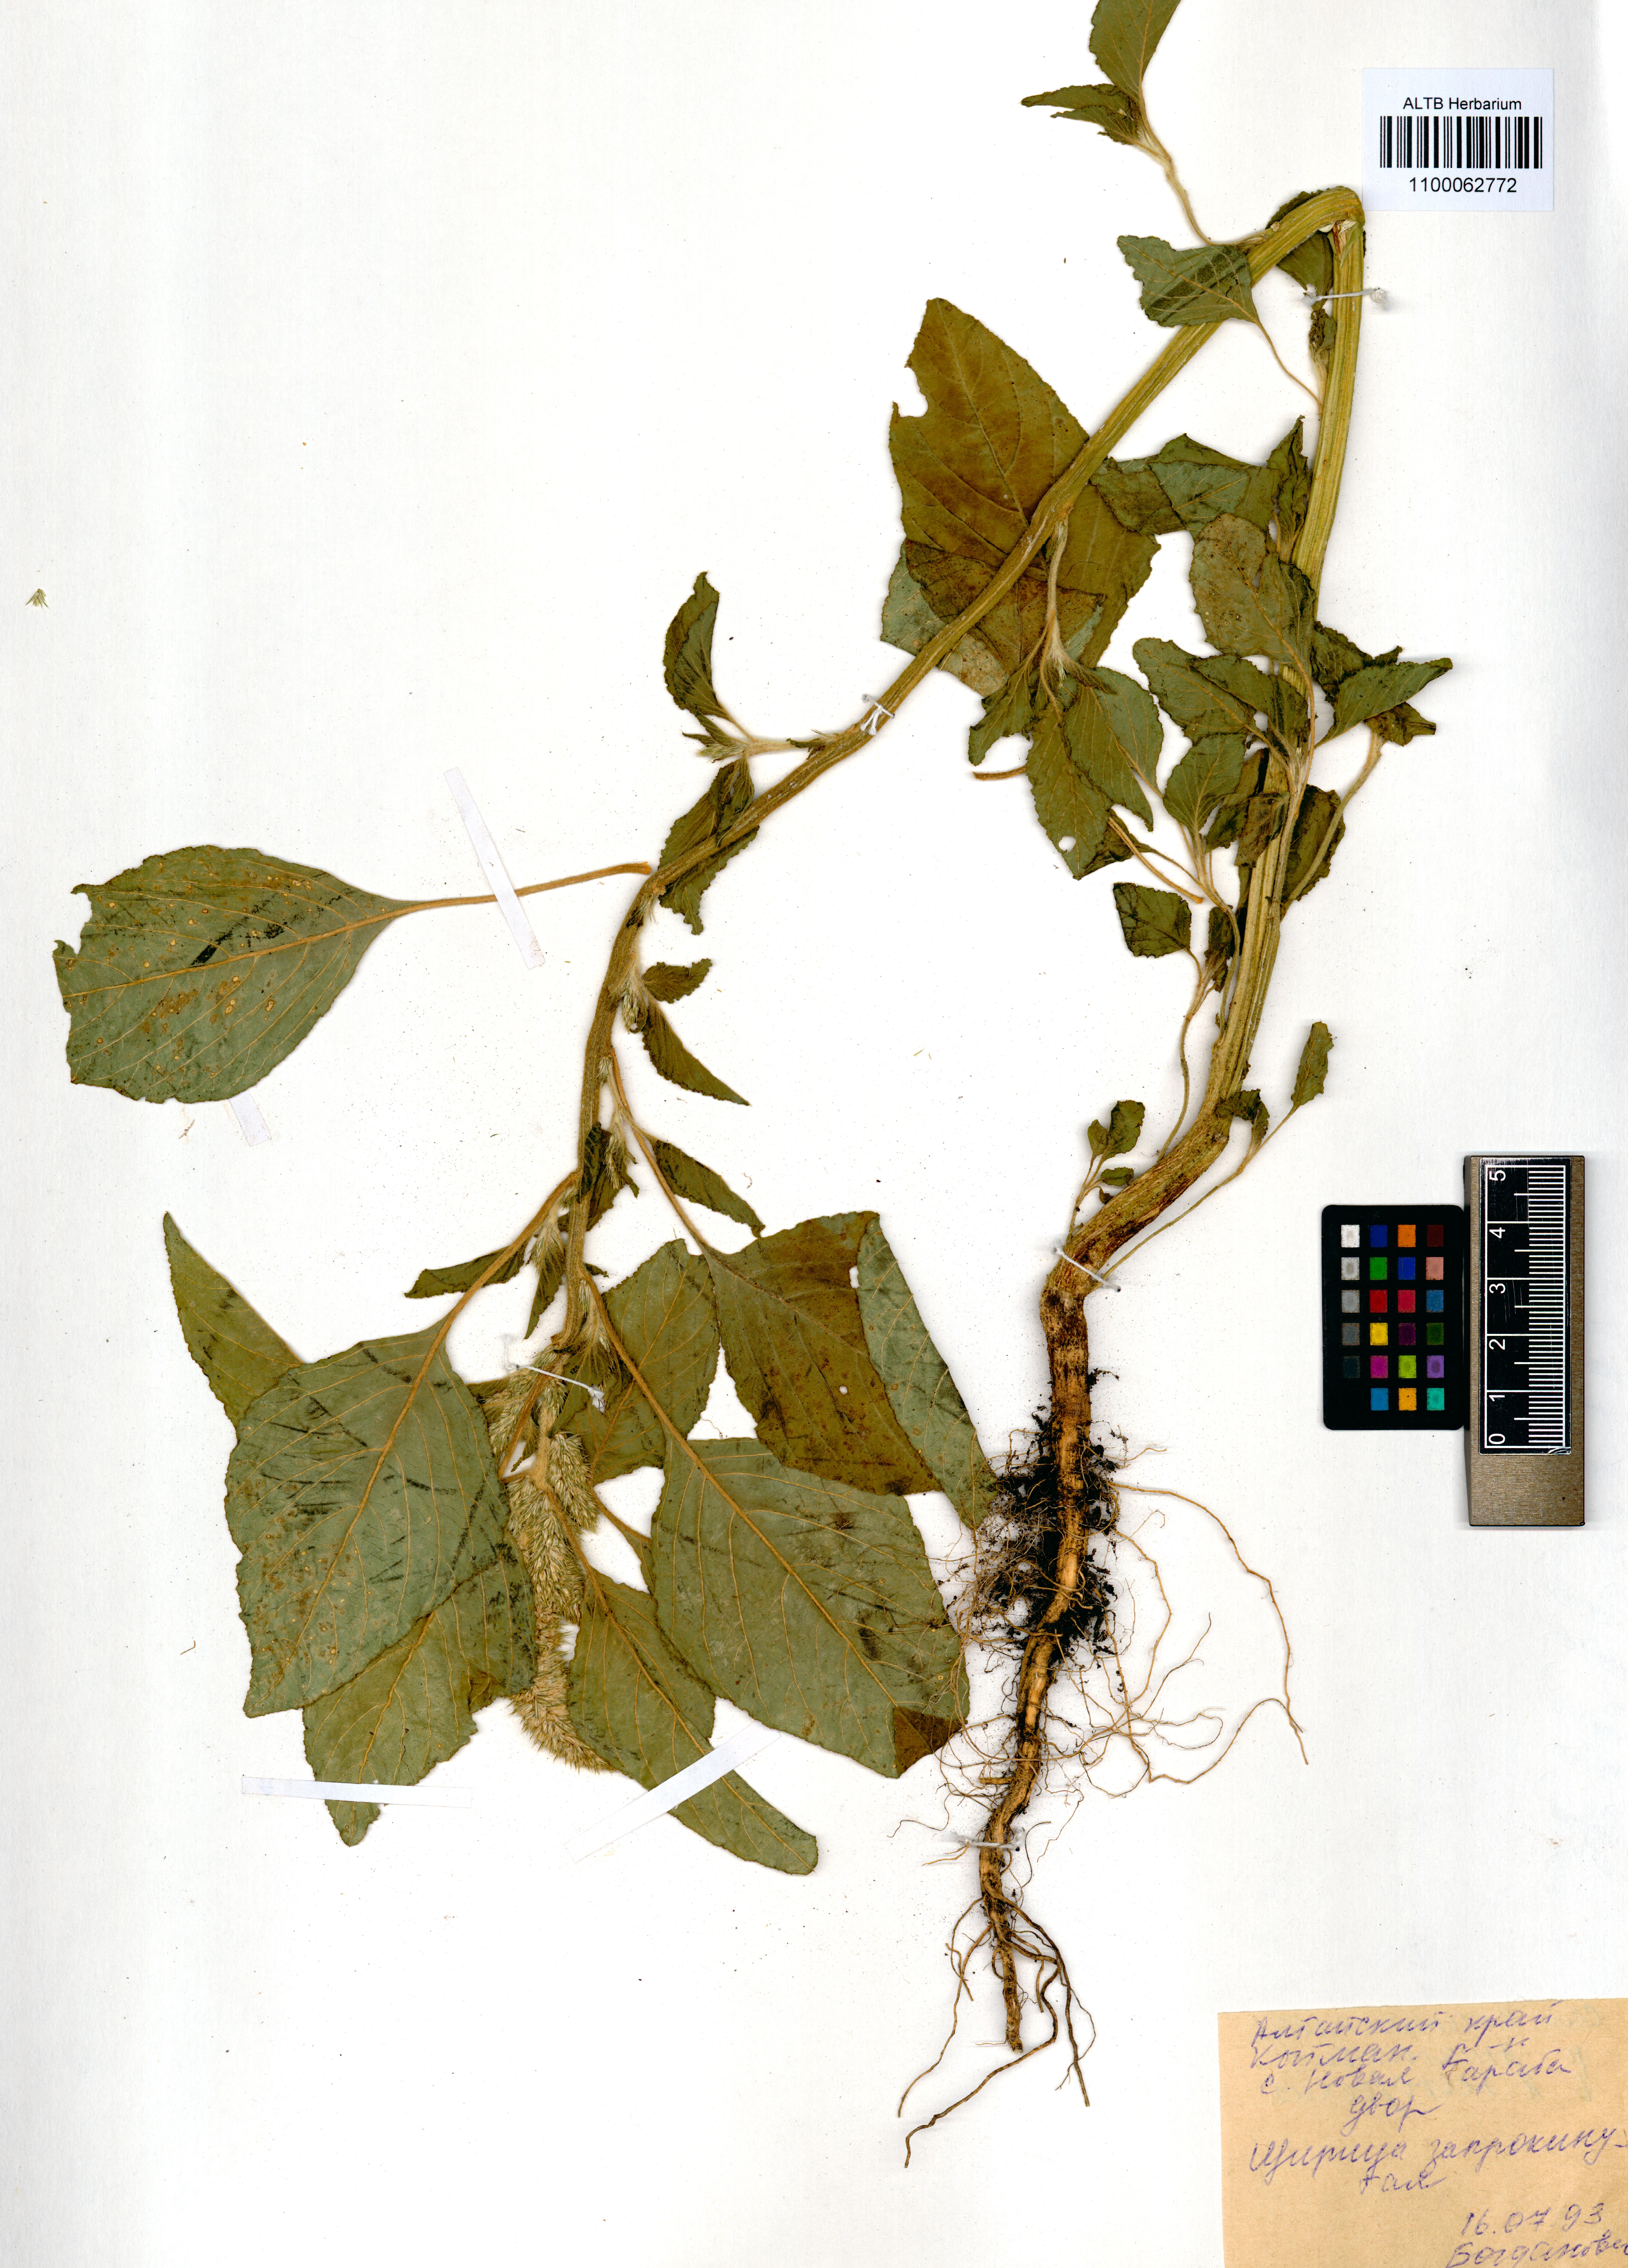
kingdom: Plantae
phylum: Tracheophyta
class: Magnoliopsida
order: Caryophyllales
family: Amaranthaceae
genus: Amaranthus
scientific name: Amaranthus retroflexus
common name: Redroot amaranth
